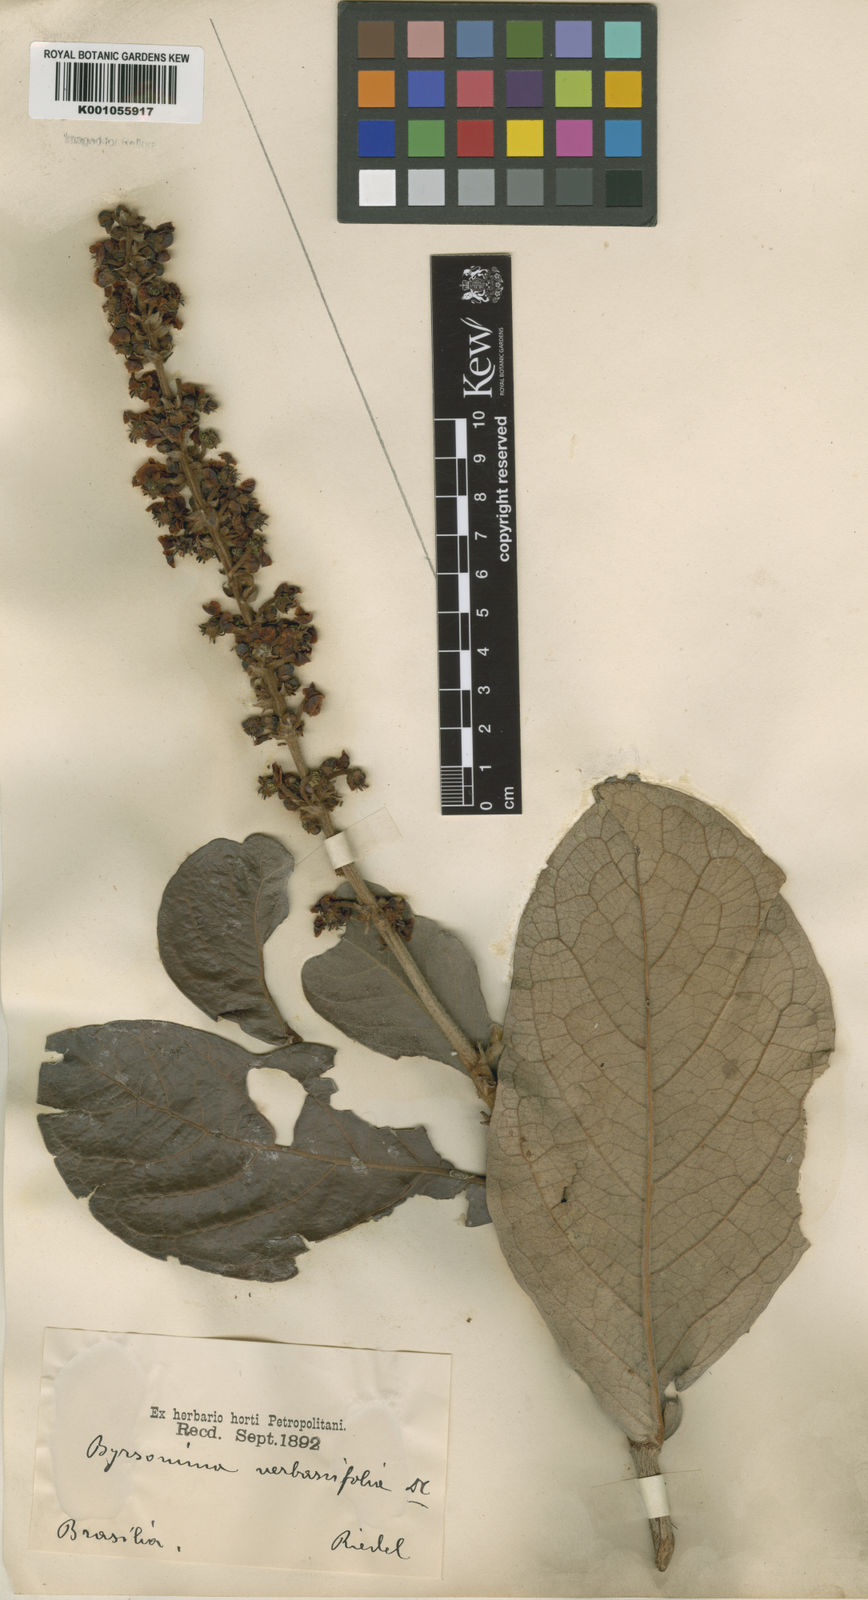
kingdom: Plantae
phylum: Tracheophyta
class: Magnoliopsida
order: Malpighiales
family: Malpighiaceae
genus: Byrsonima
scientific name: Byrsonima verbascifolia
